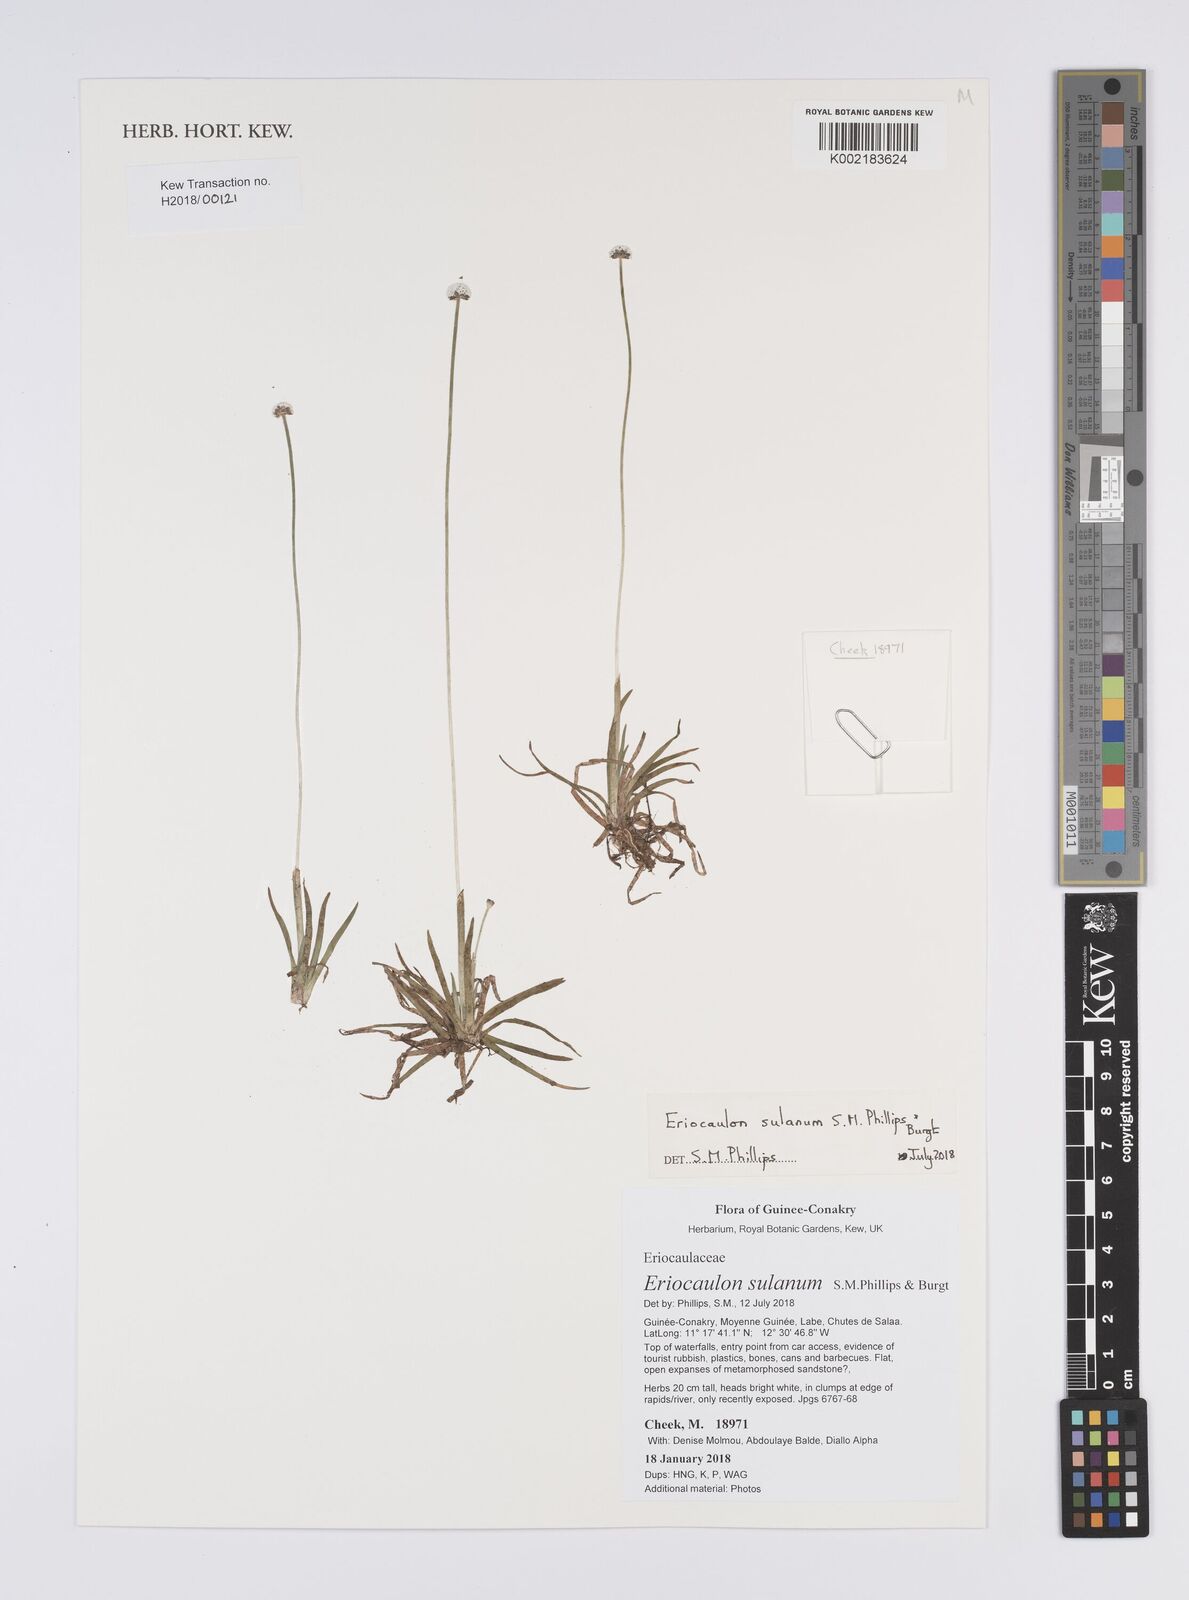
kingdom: Plantae
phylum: Tracheophyta
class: Liliopsida
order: Poales
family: Eriocaulaceae
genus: Eriocaulon
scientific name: Eriocaulon sulanum
